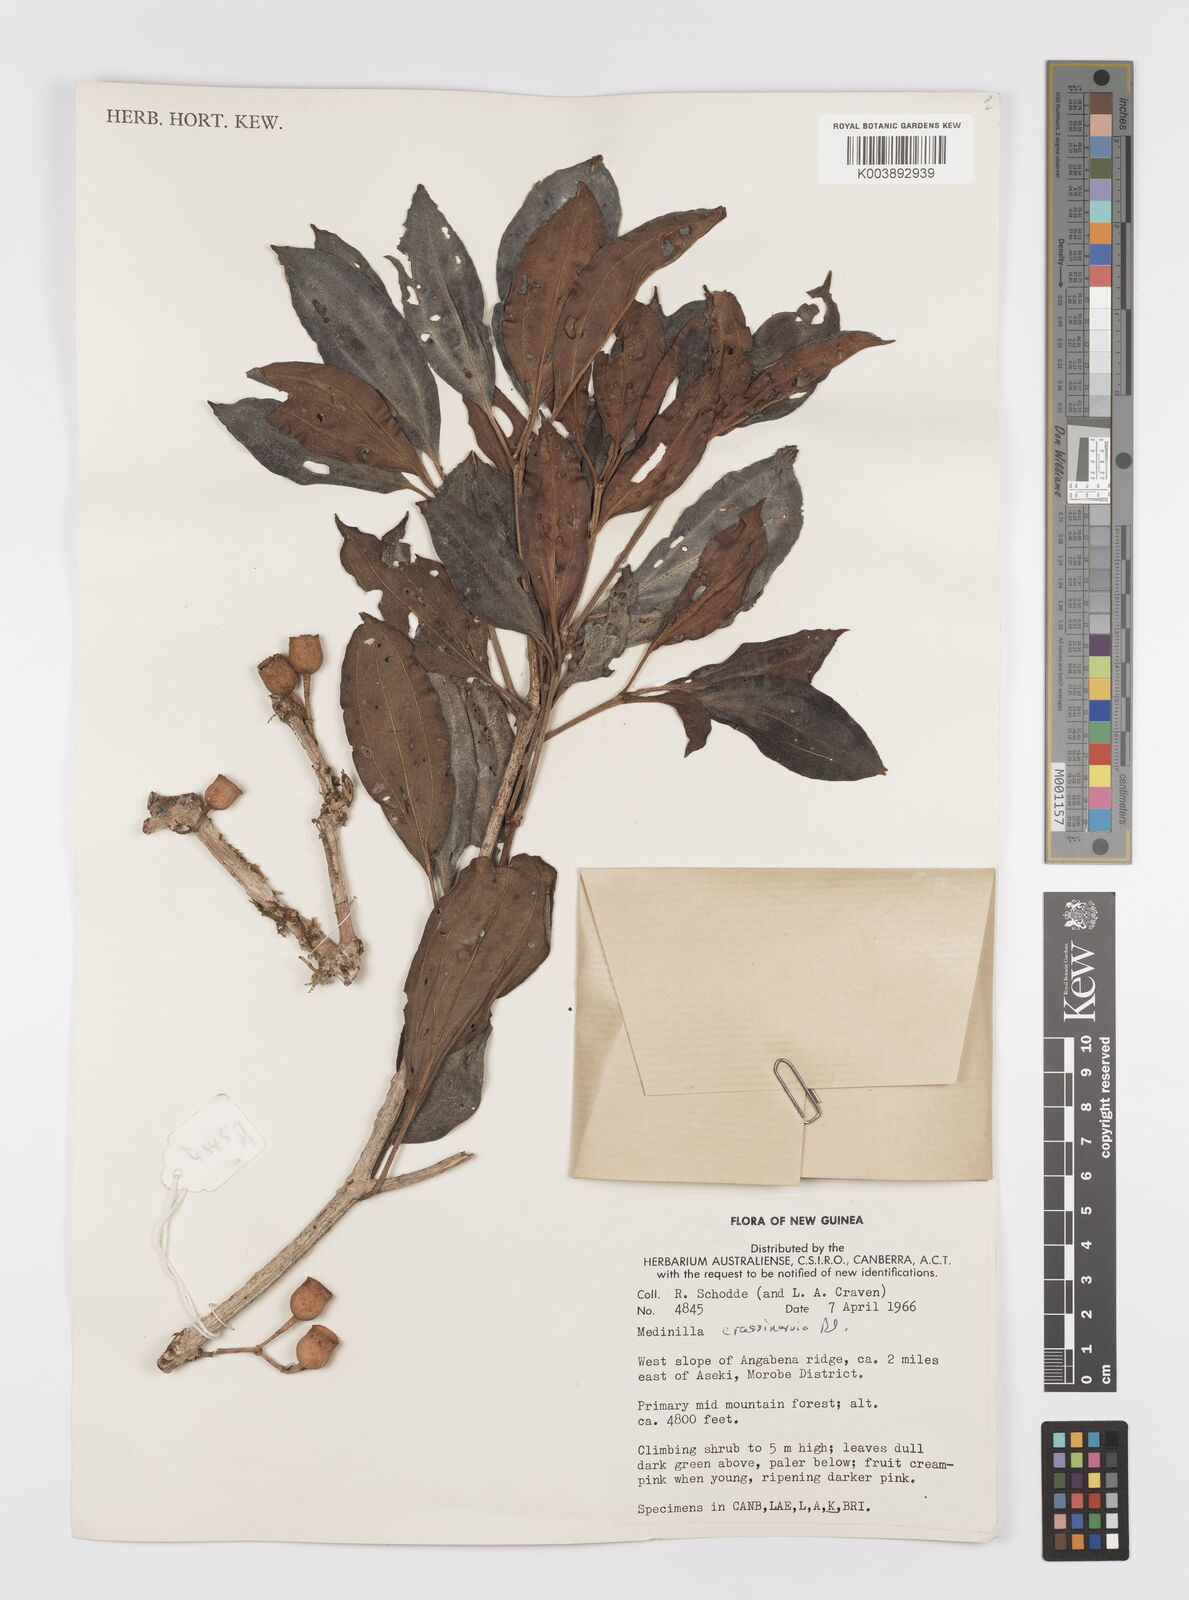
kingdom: Plantae
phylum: Tracheophyta
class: Magnoliopsida
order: Myrtales
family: Melastomataceae
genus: Medinilla
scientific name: Medinilla beddomei
